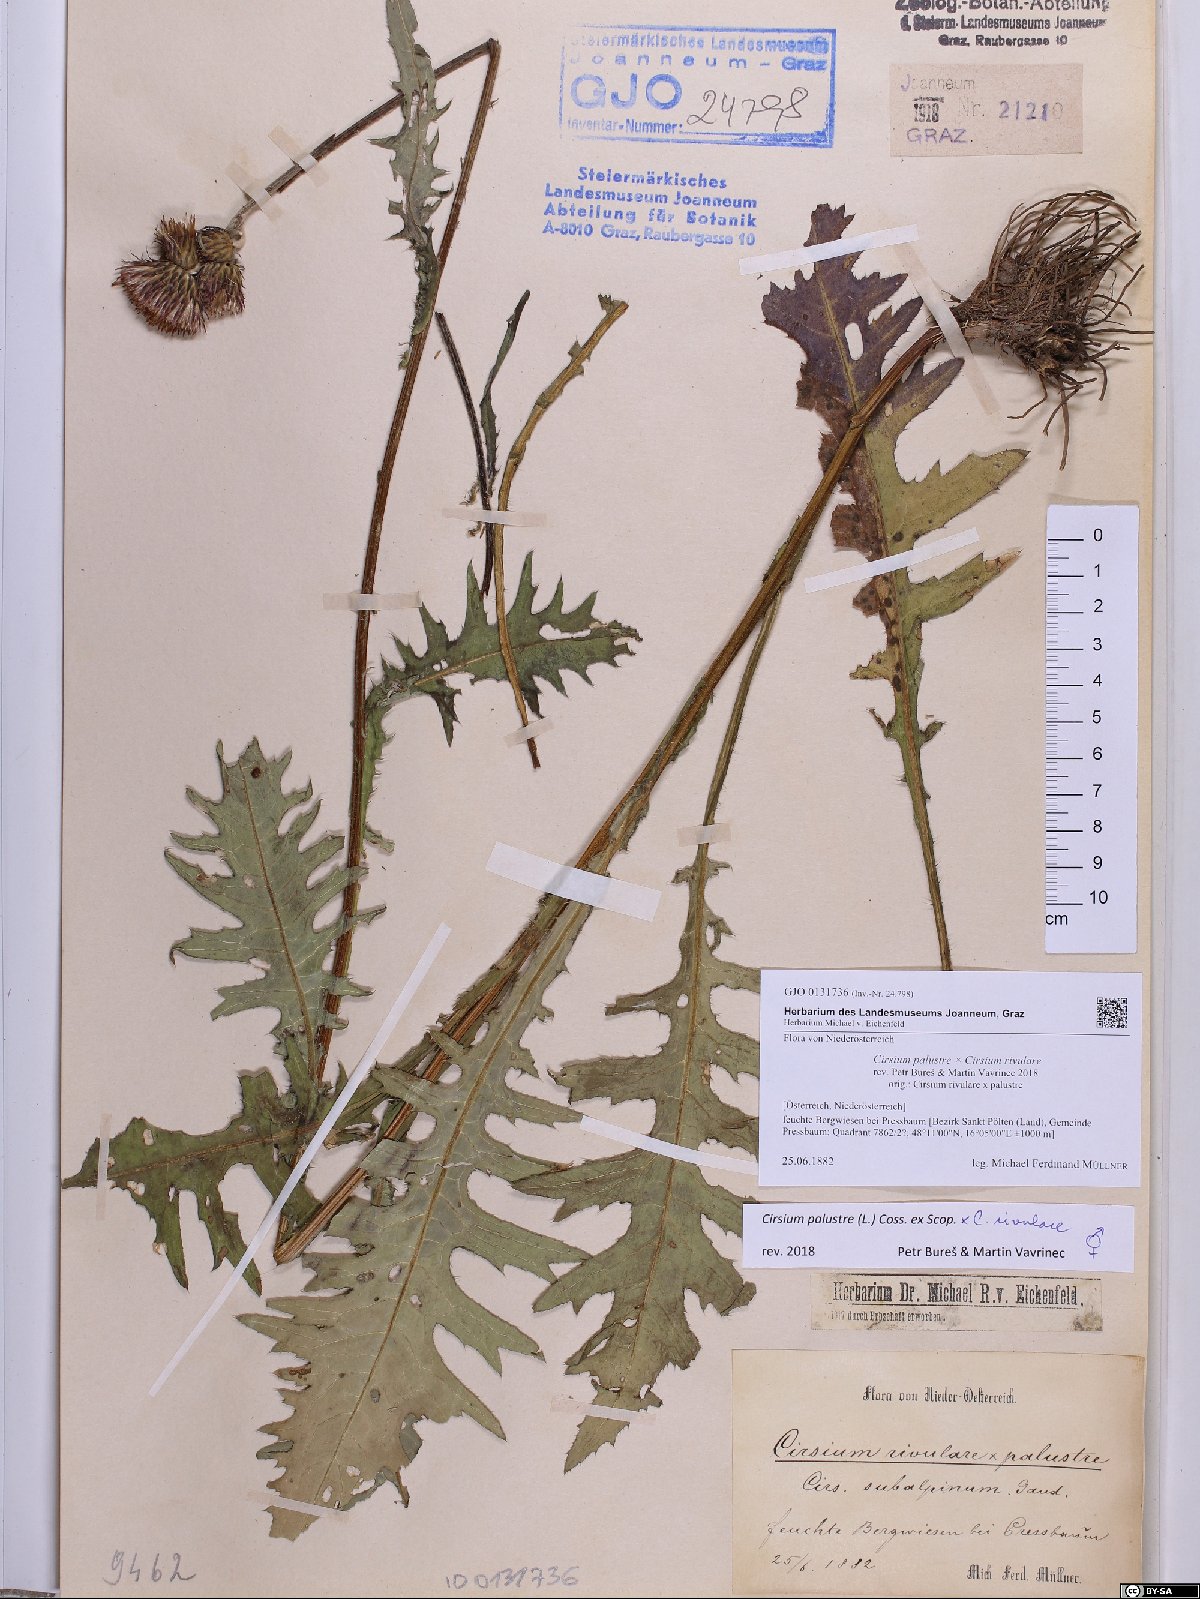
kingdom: Plantae
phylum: Tracheophyta
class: Magnoliopsida
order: Asterales
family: Asteraceae
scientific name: Asteraceae
